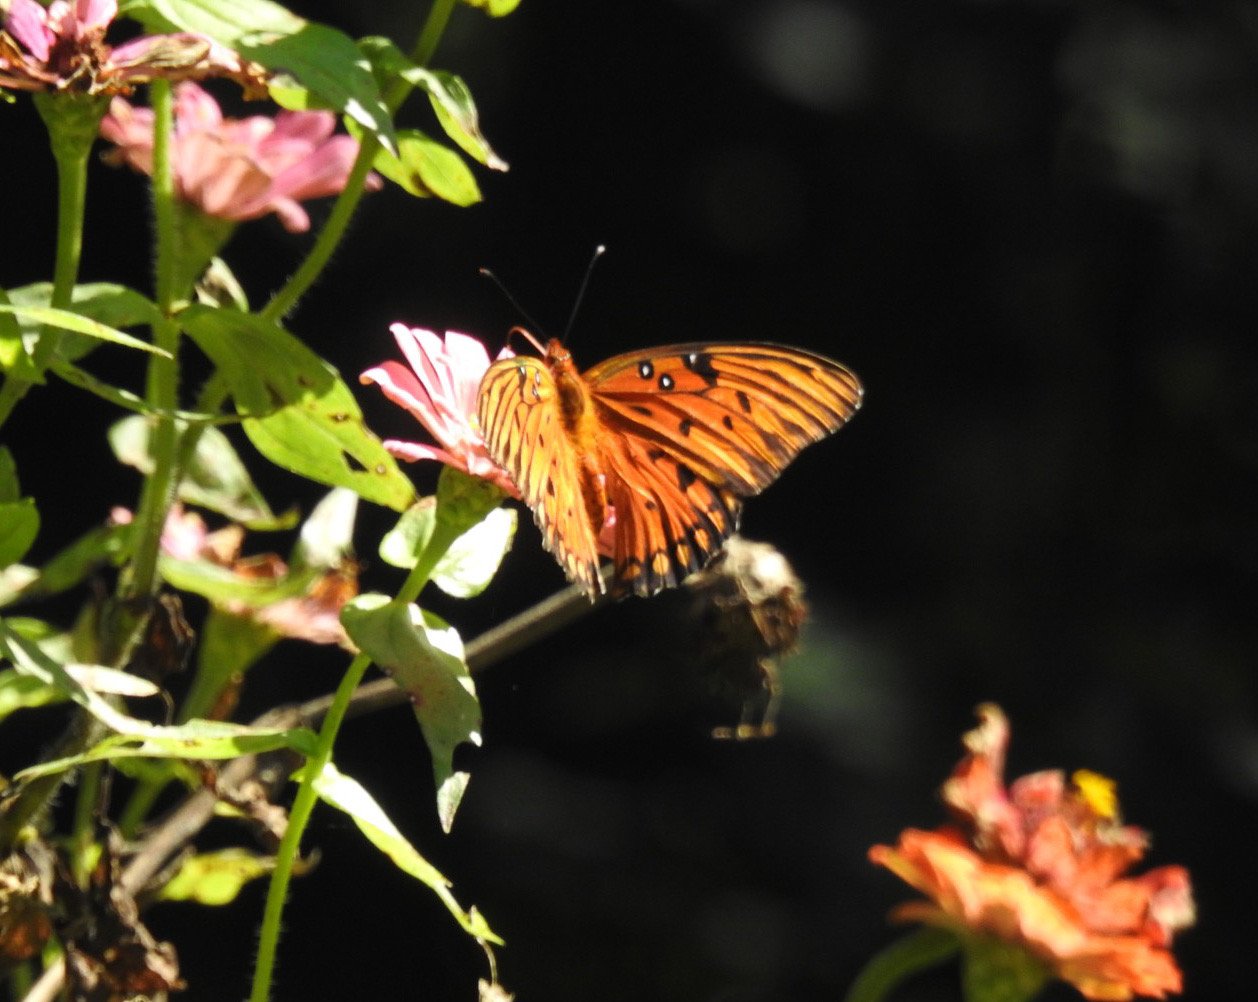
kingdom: Animalia
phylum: Arthropoda
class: Insecta
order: Lepidoptera
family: Nymphalidae
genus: Dione
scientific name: Dione vanillae
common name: Gulf Fritillary
